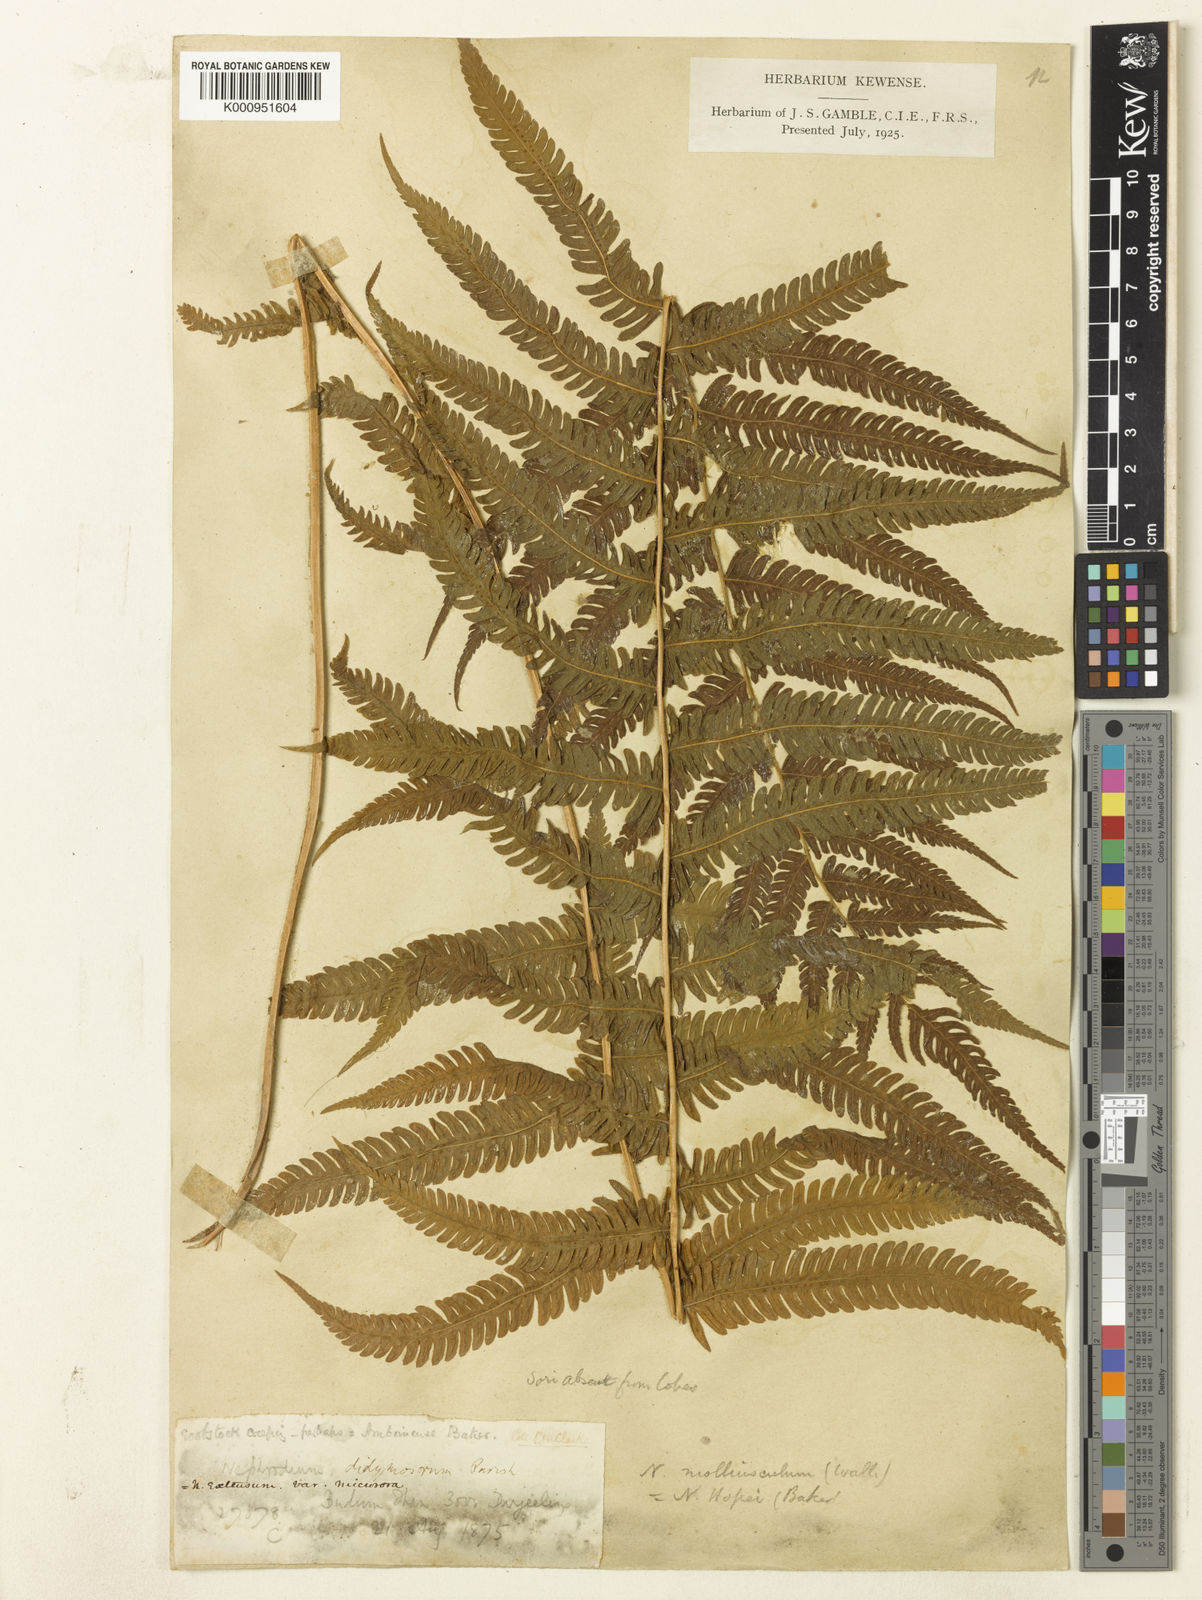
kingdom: Plantae
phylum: Tracheophyta
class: Polypodiopsida
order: Polypodiales
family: Thelypteridaceae
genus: Christella
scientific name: Christella procera
